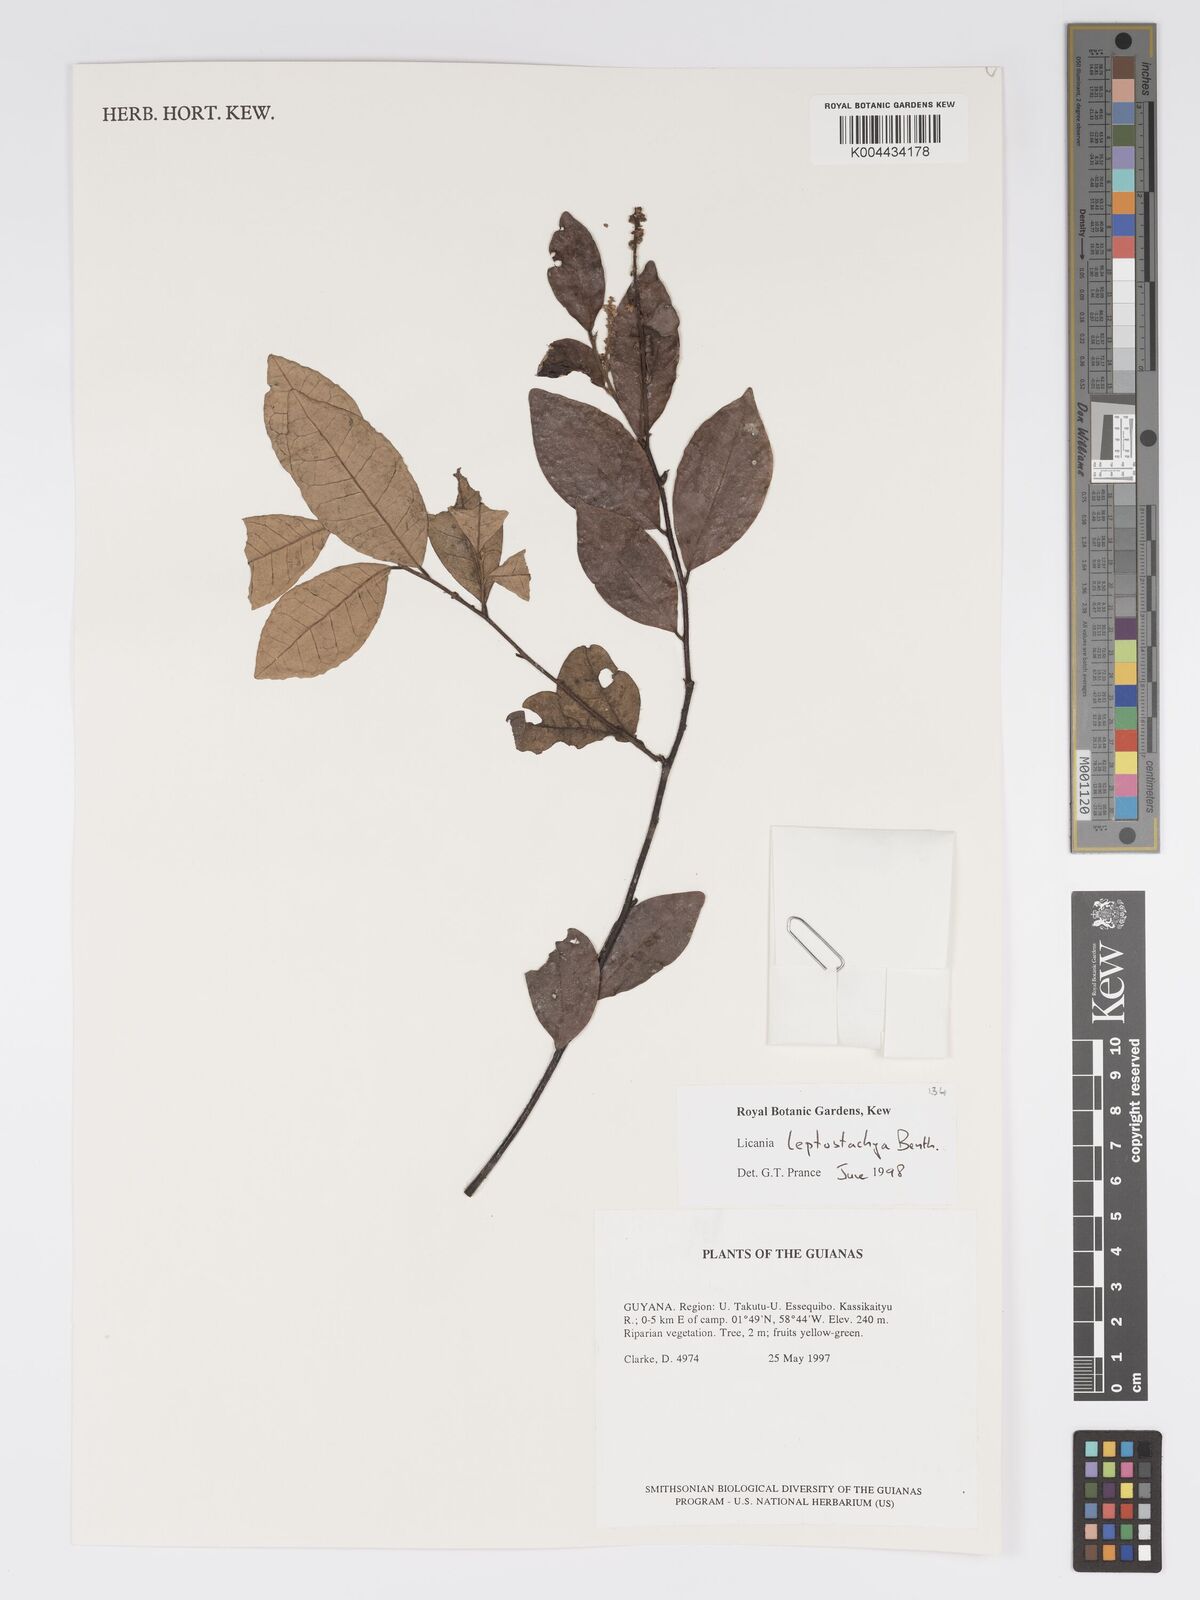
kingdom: Plantae
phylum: Tracheophyta
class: Magnoliopsida
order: Malpighiales
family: Chrysobalanaceae
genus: Licania
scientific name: Licania leptostachya
